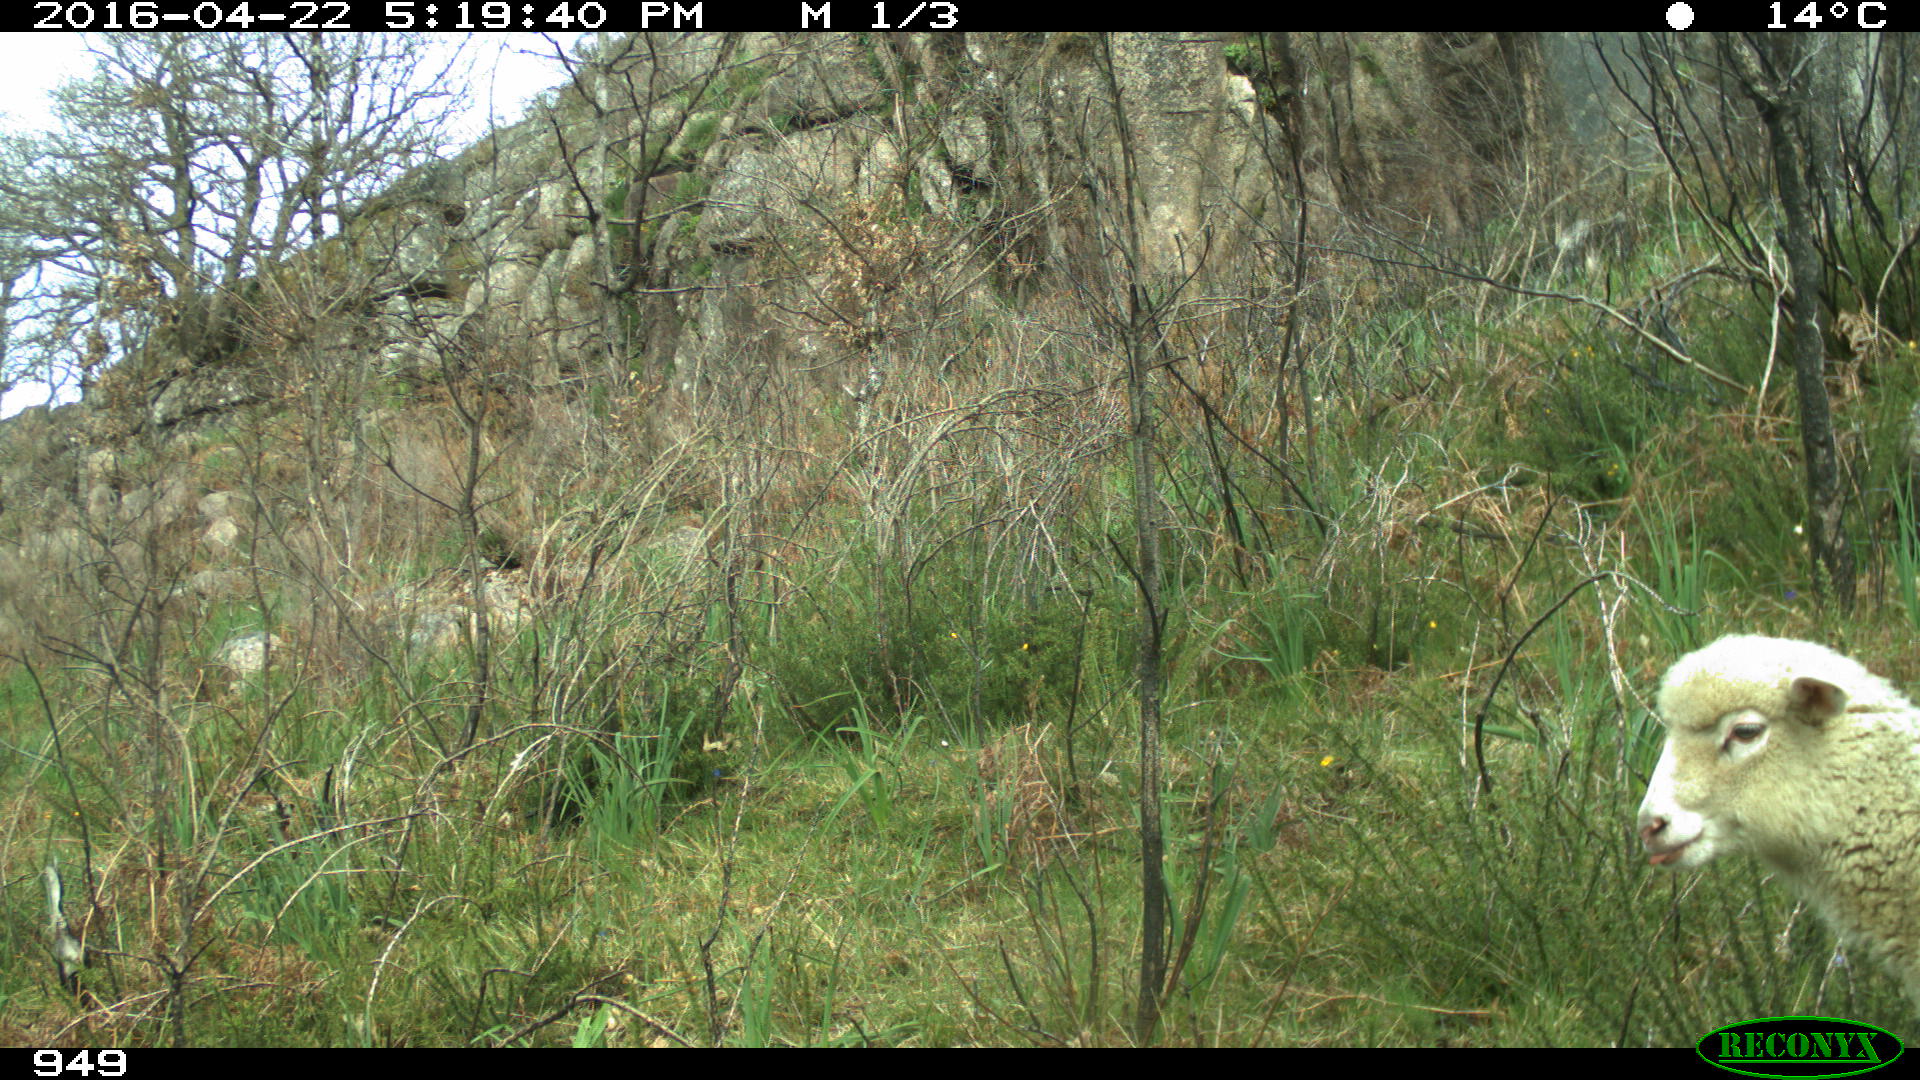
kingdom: Animalia
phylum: Chordata
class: Mammalia
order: Artiodactyla
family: Bovidae
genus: Ovis
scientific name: Ovis aries
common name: Domestic sheep
